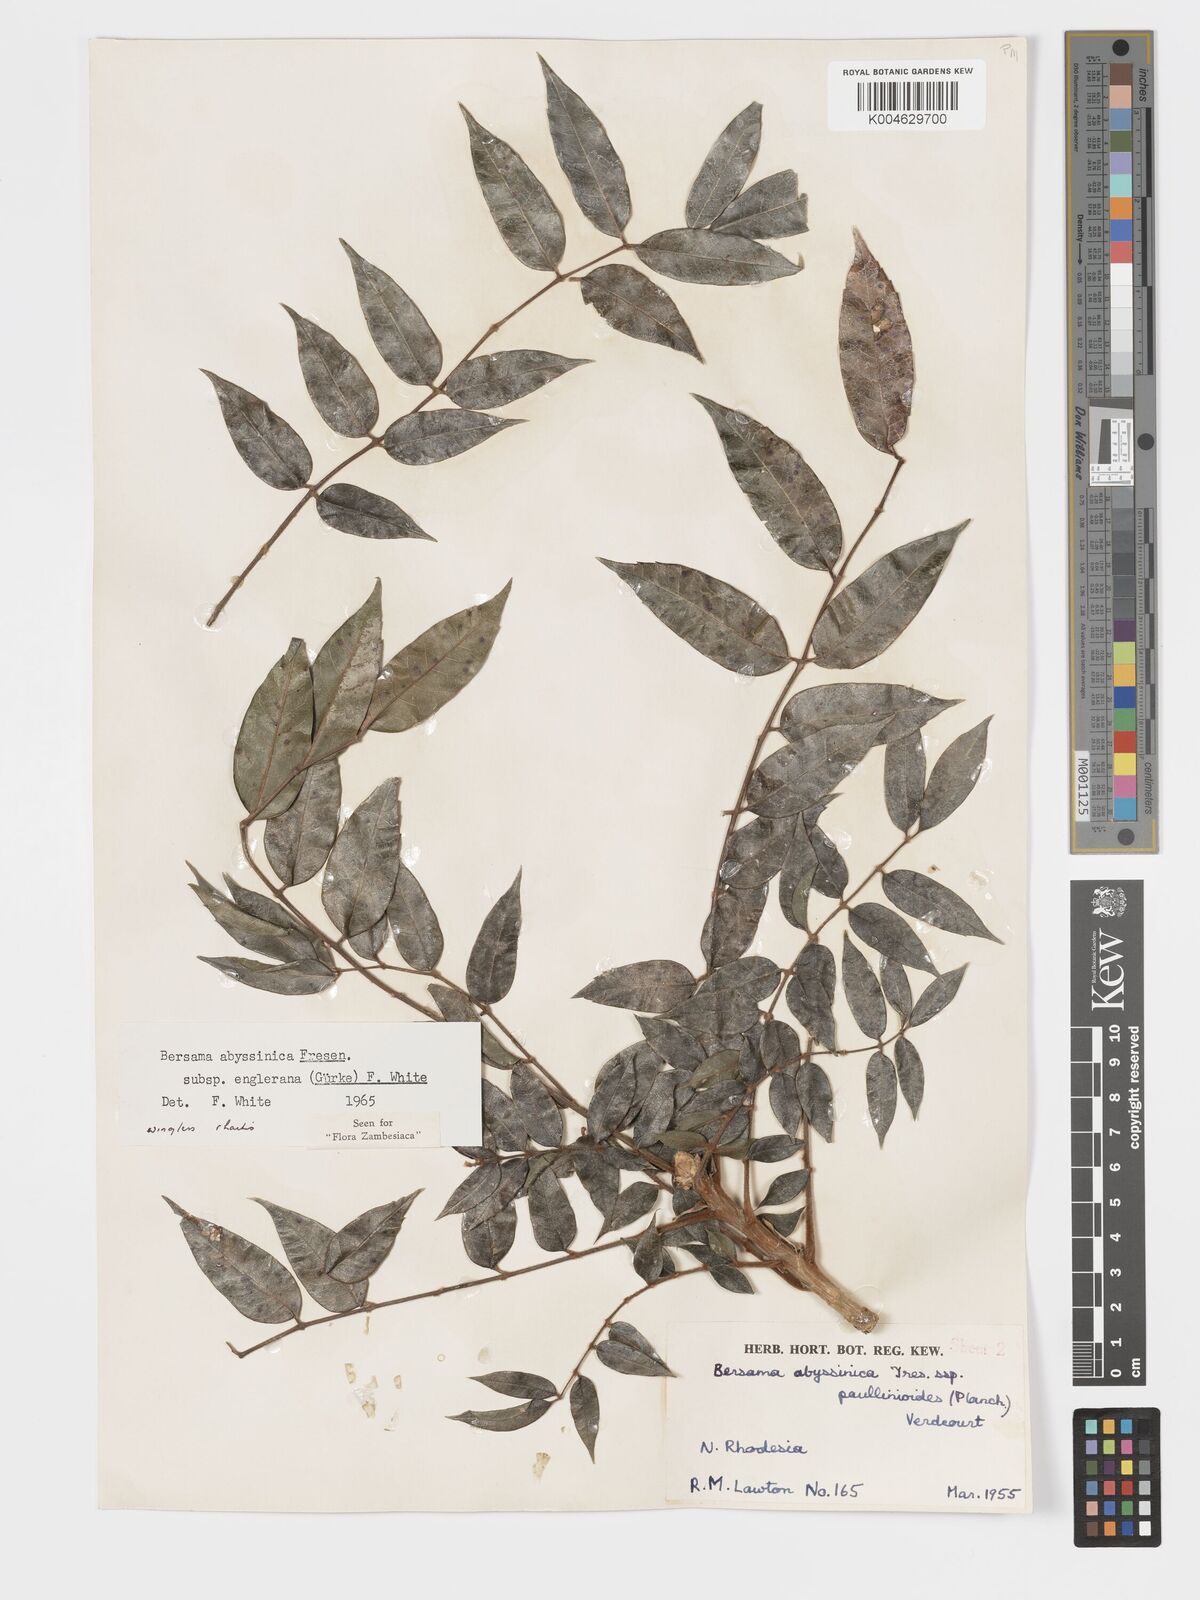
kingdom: Plantae
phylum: Tracheophyta
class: Magnoliopsida
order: Geraniales
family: Melianthaceae
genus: Bersama
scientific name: Bersama abyssinica
